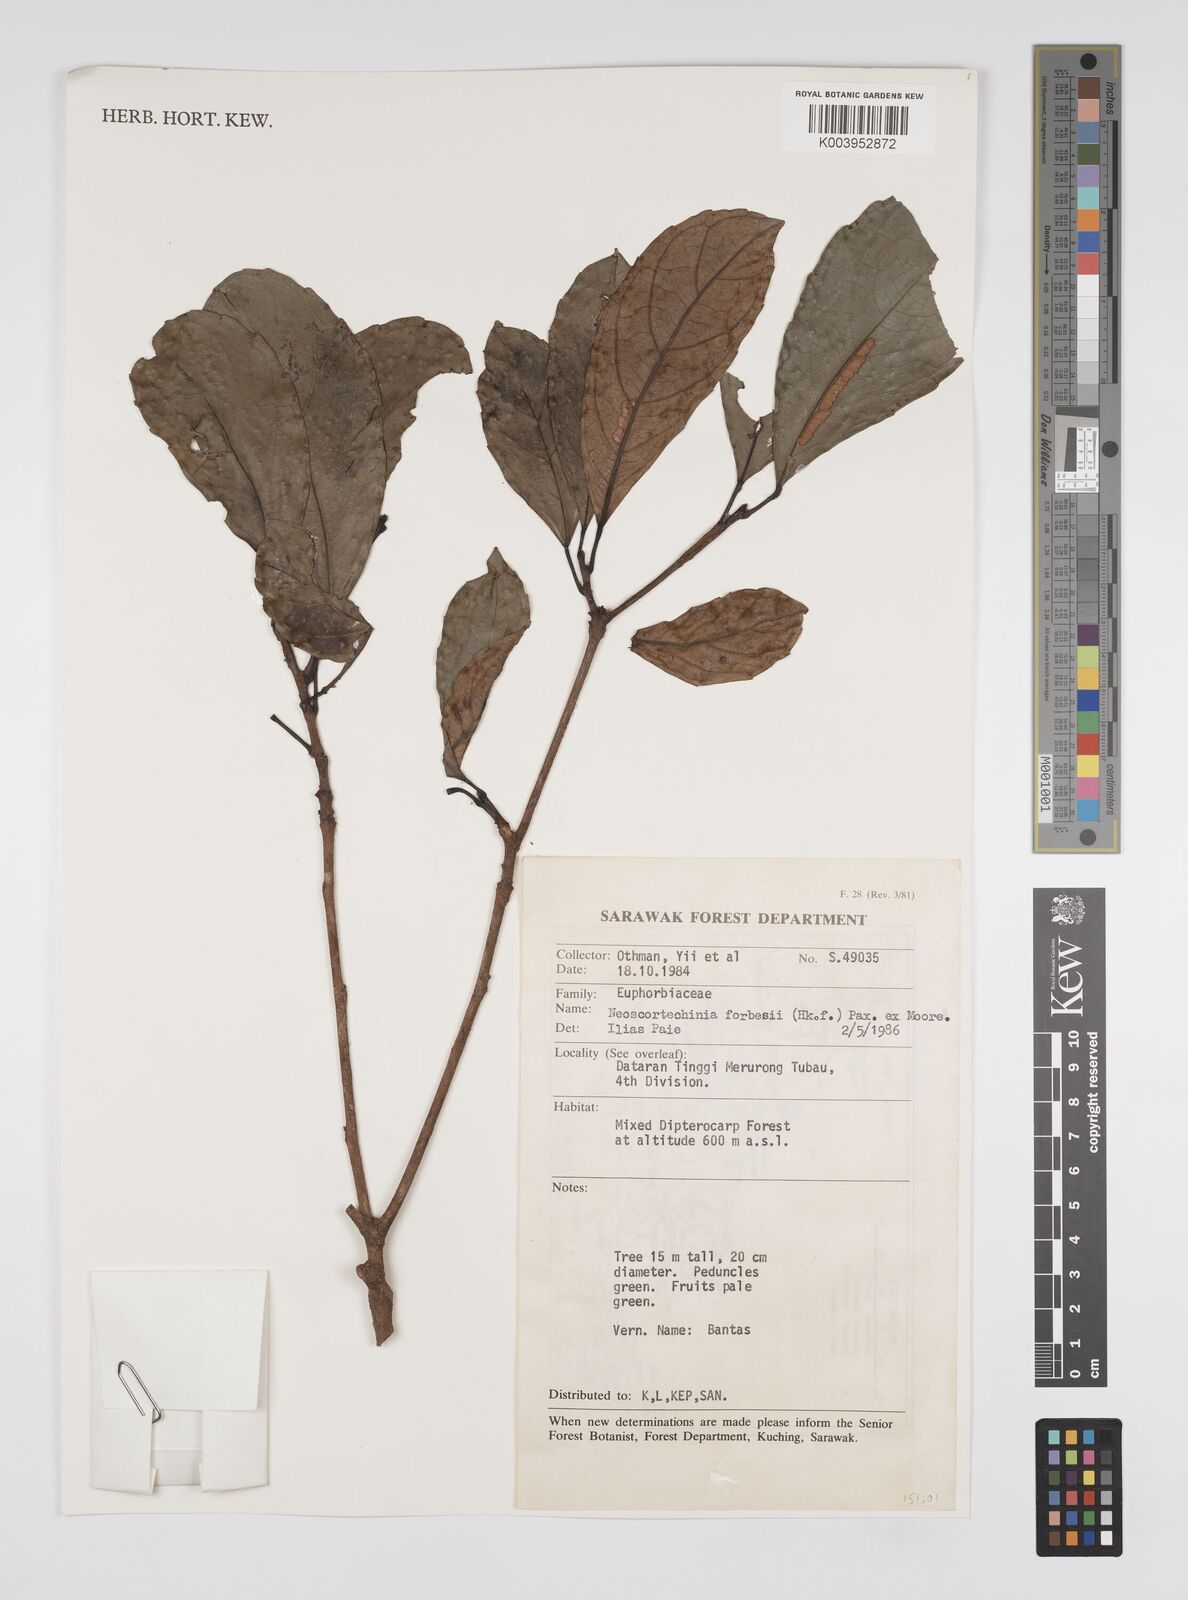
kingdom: Plantae
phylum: Tracheophyta
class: Magnoliopsida
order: Malpighiales
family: Euphorbiaceae
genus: Neoscortechinia
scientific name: Neoscortechinia philippinensis
